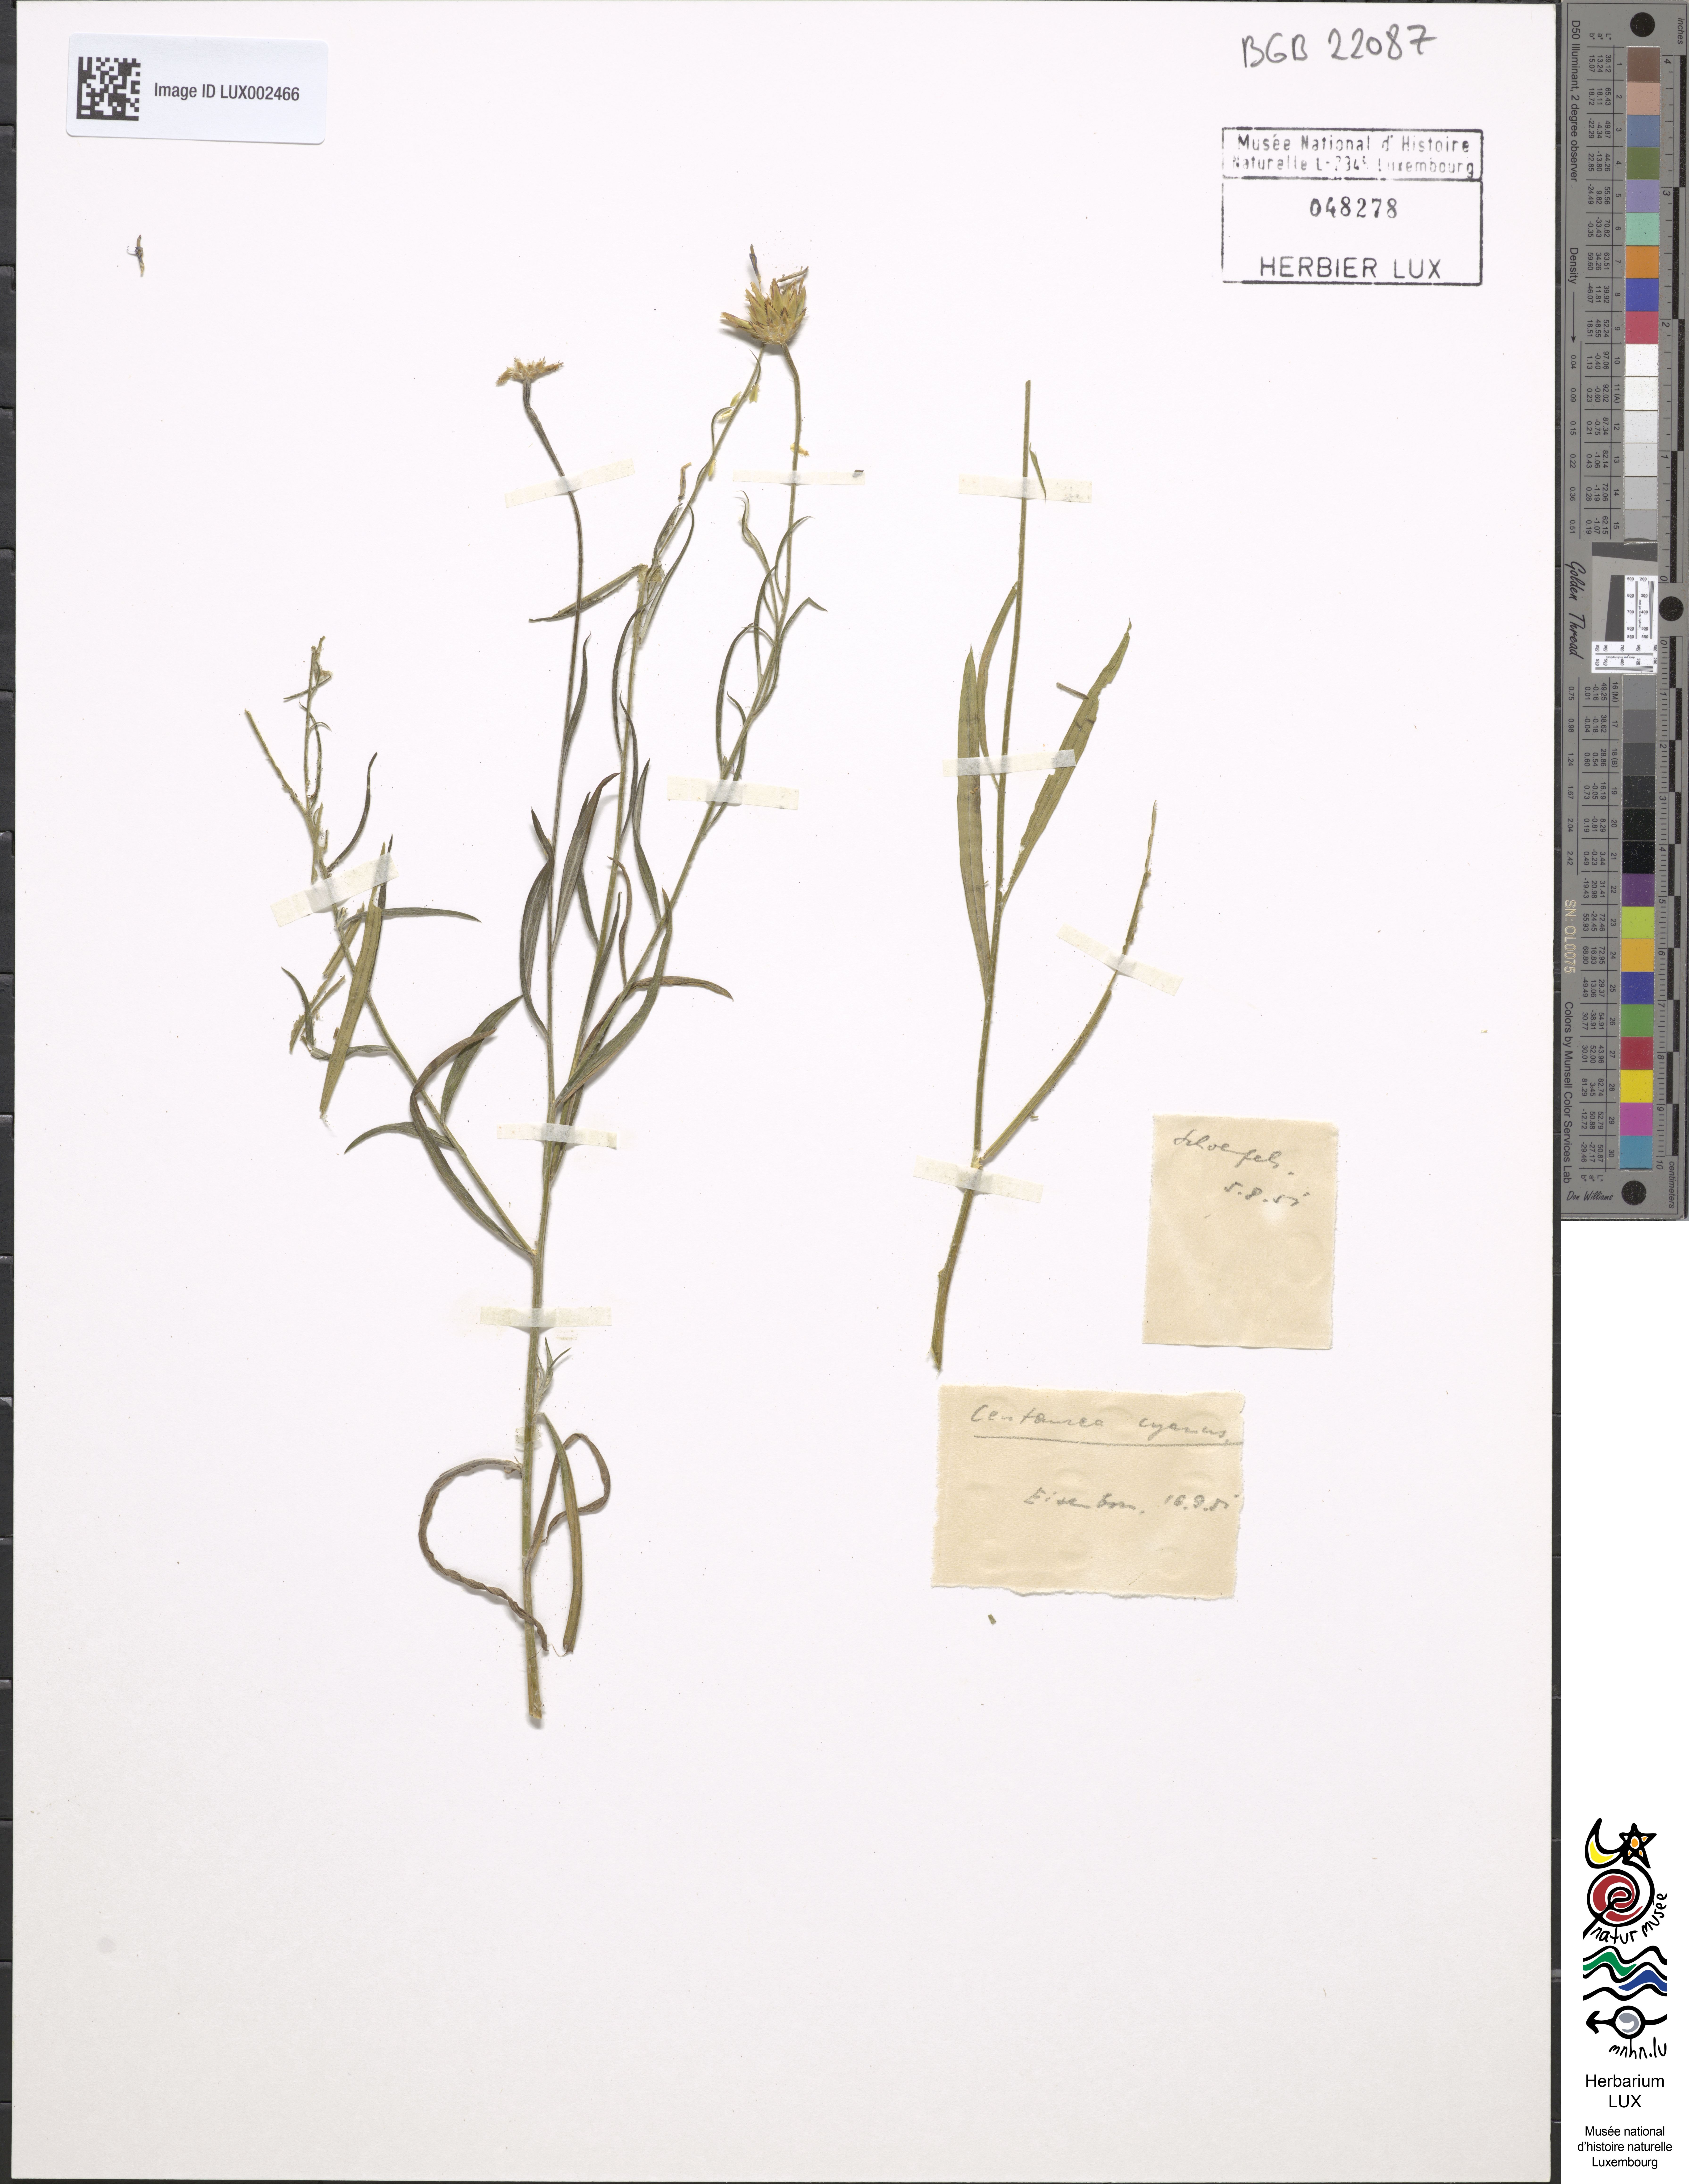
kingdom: Plantae
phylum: Tracheophyta
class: Magnoliopsida
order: Asterales
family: Asteraceae
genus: Centaurea
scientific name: Centaurea cyanus
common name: Cornflower
